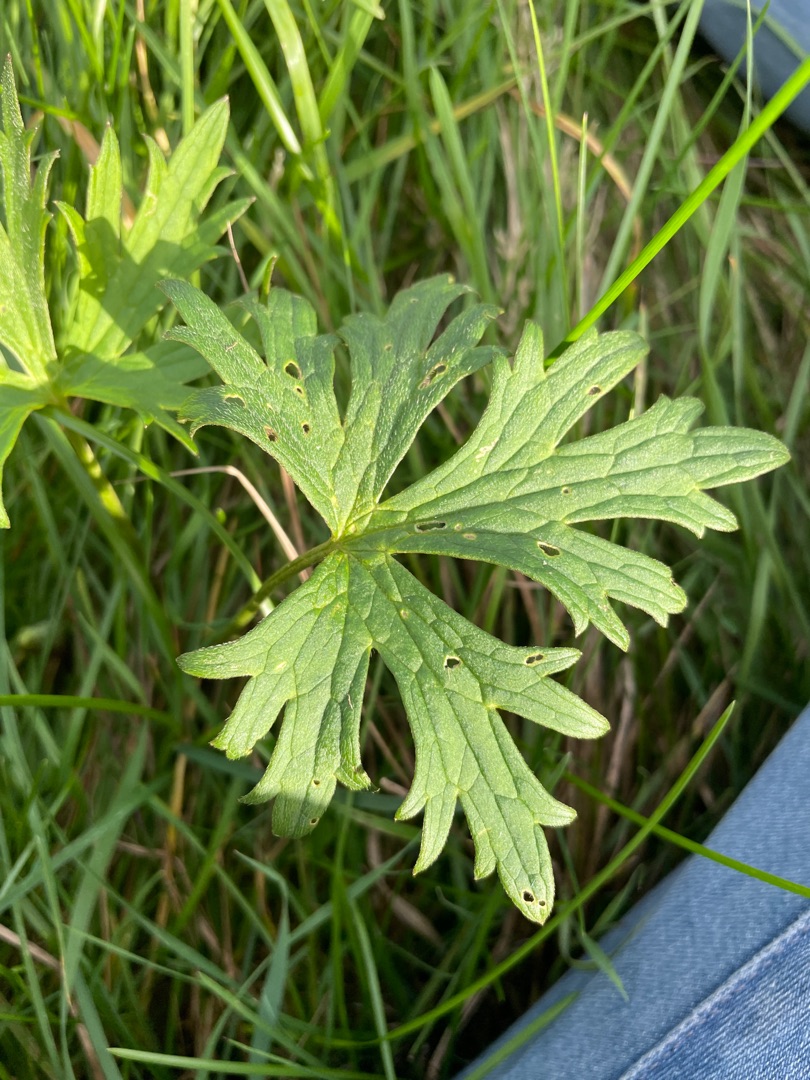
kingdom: Plantae
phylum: Tracheophyta
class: Magnoliopsida
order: Ranunculales
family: Ranunculaceae
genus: Ranunculus
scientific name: Ranunculus acris
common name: Bidende ranunkel
